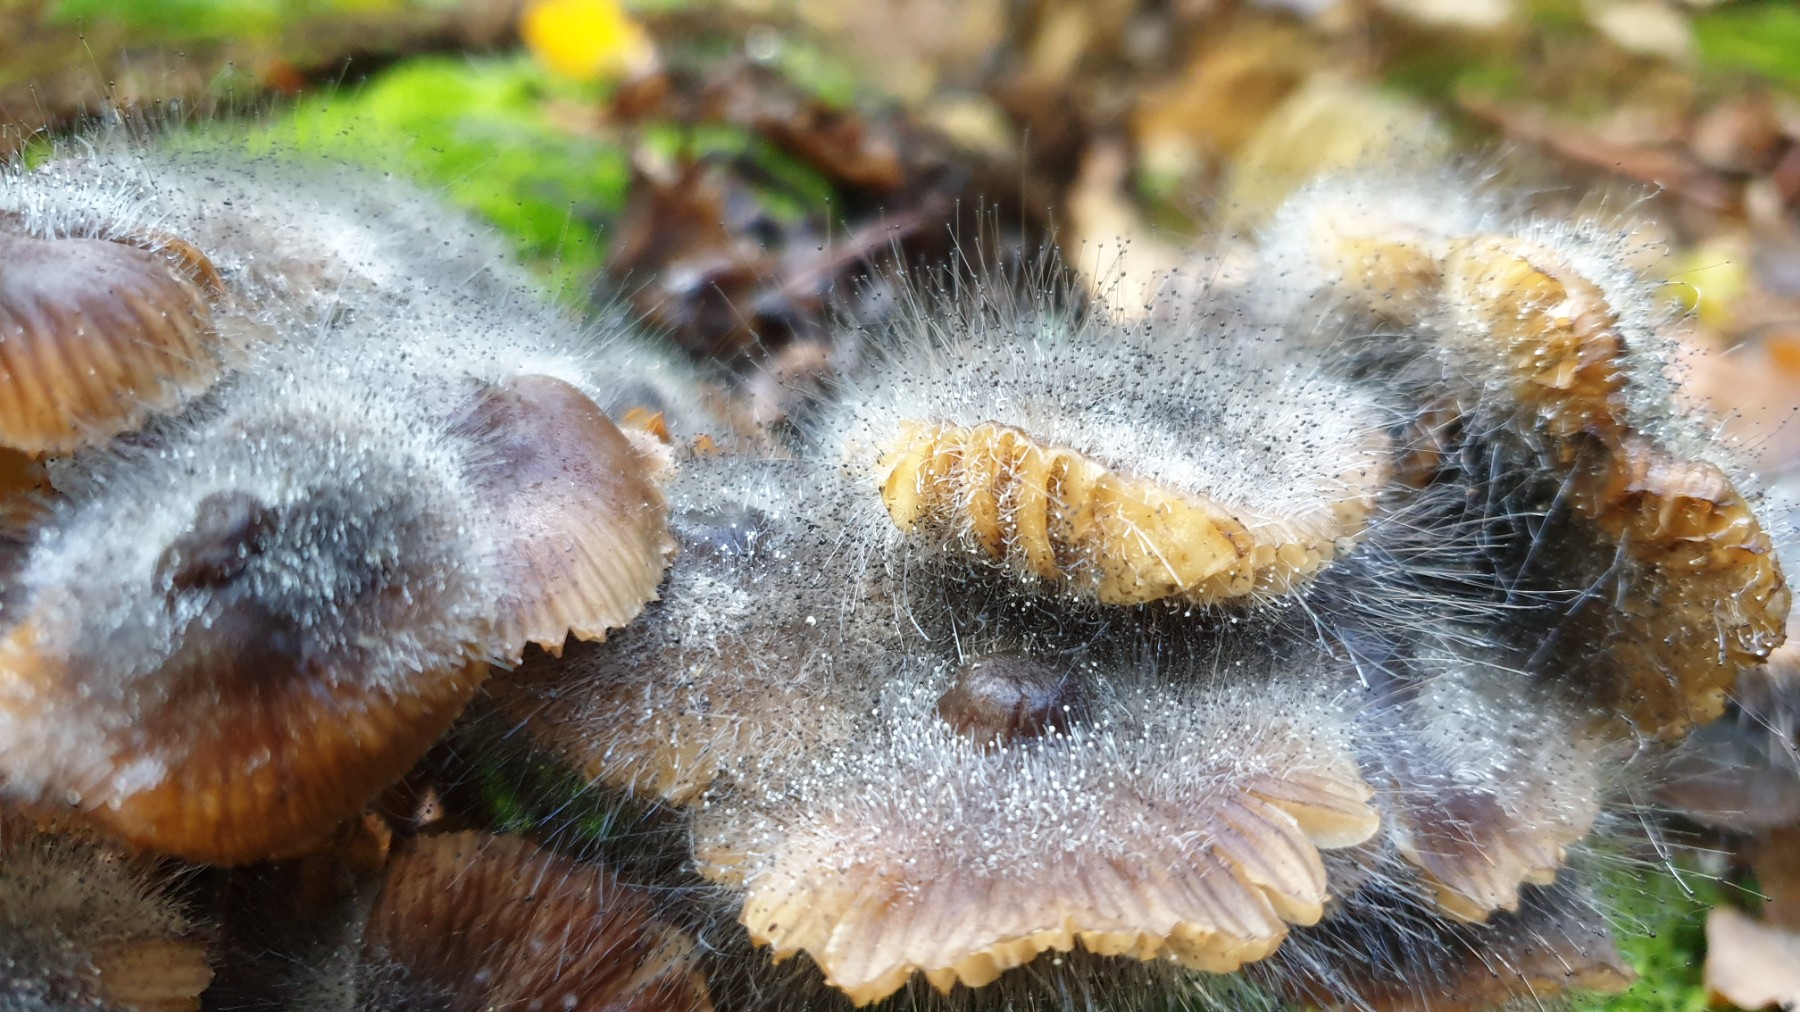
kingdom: Fungi
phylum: Mucoromycota
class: Mucoromycetes
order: Mucorales
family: Phycomycetaceae
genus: Spinellus
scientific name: Spinellus fusiger
